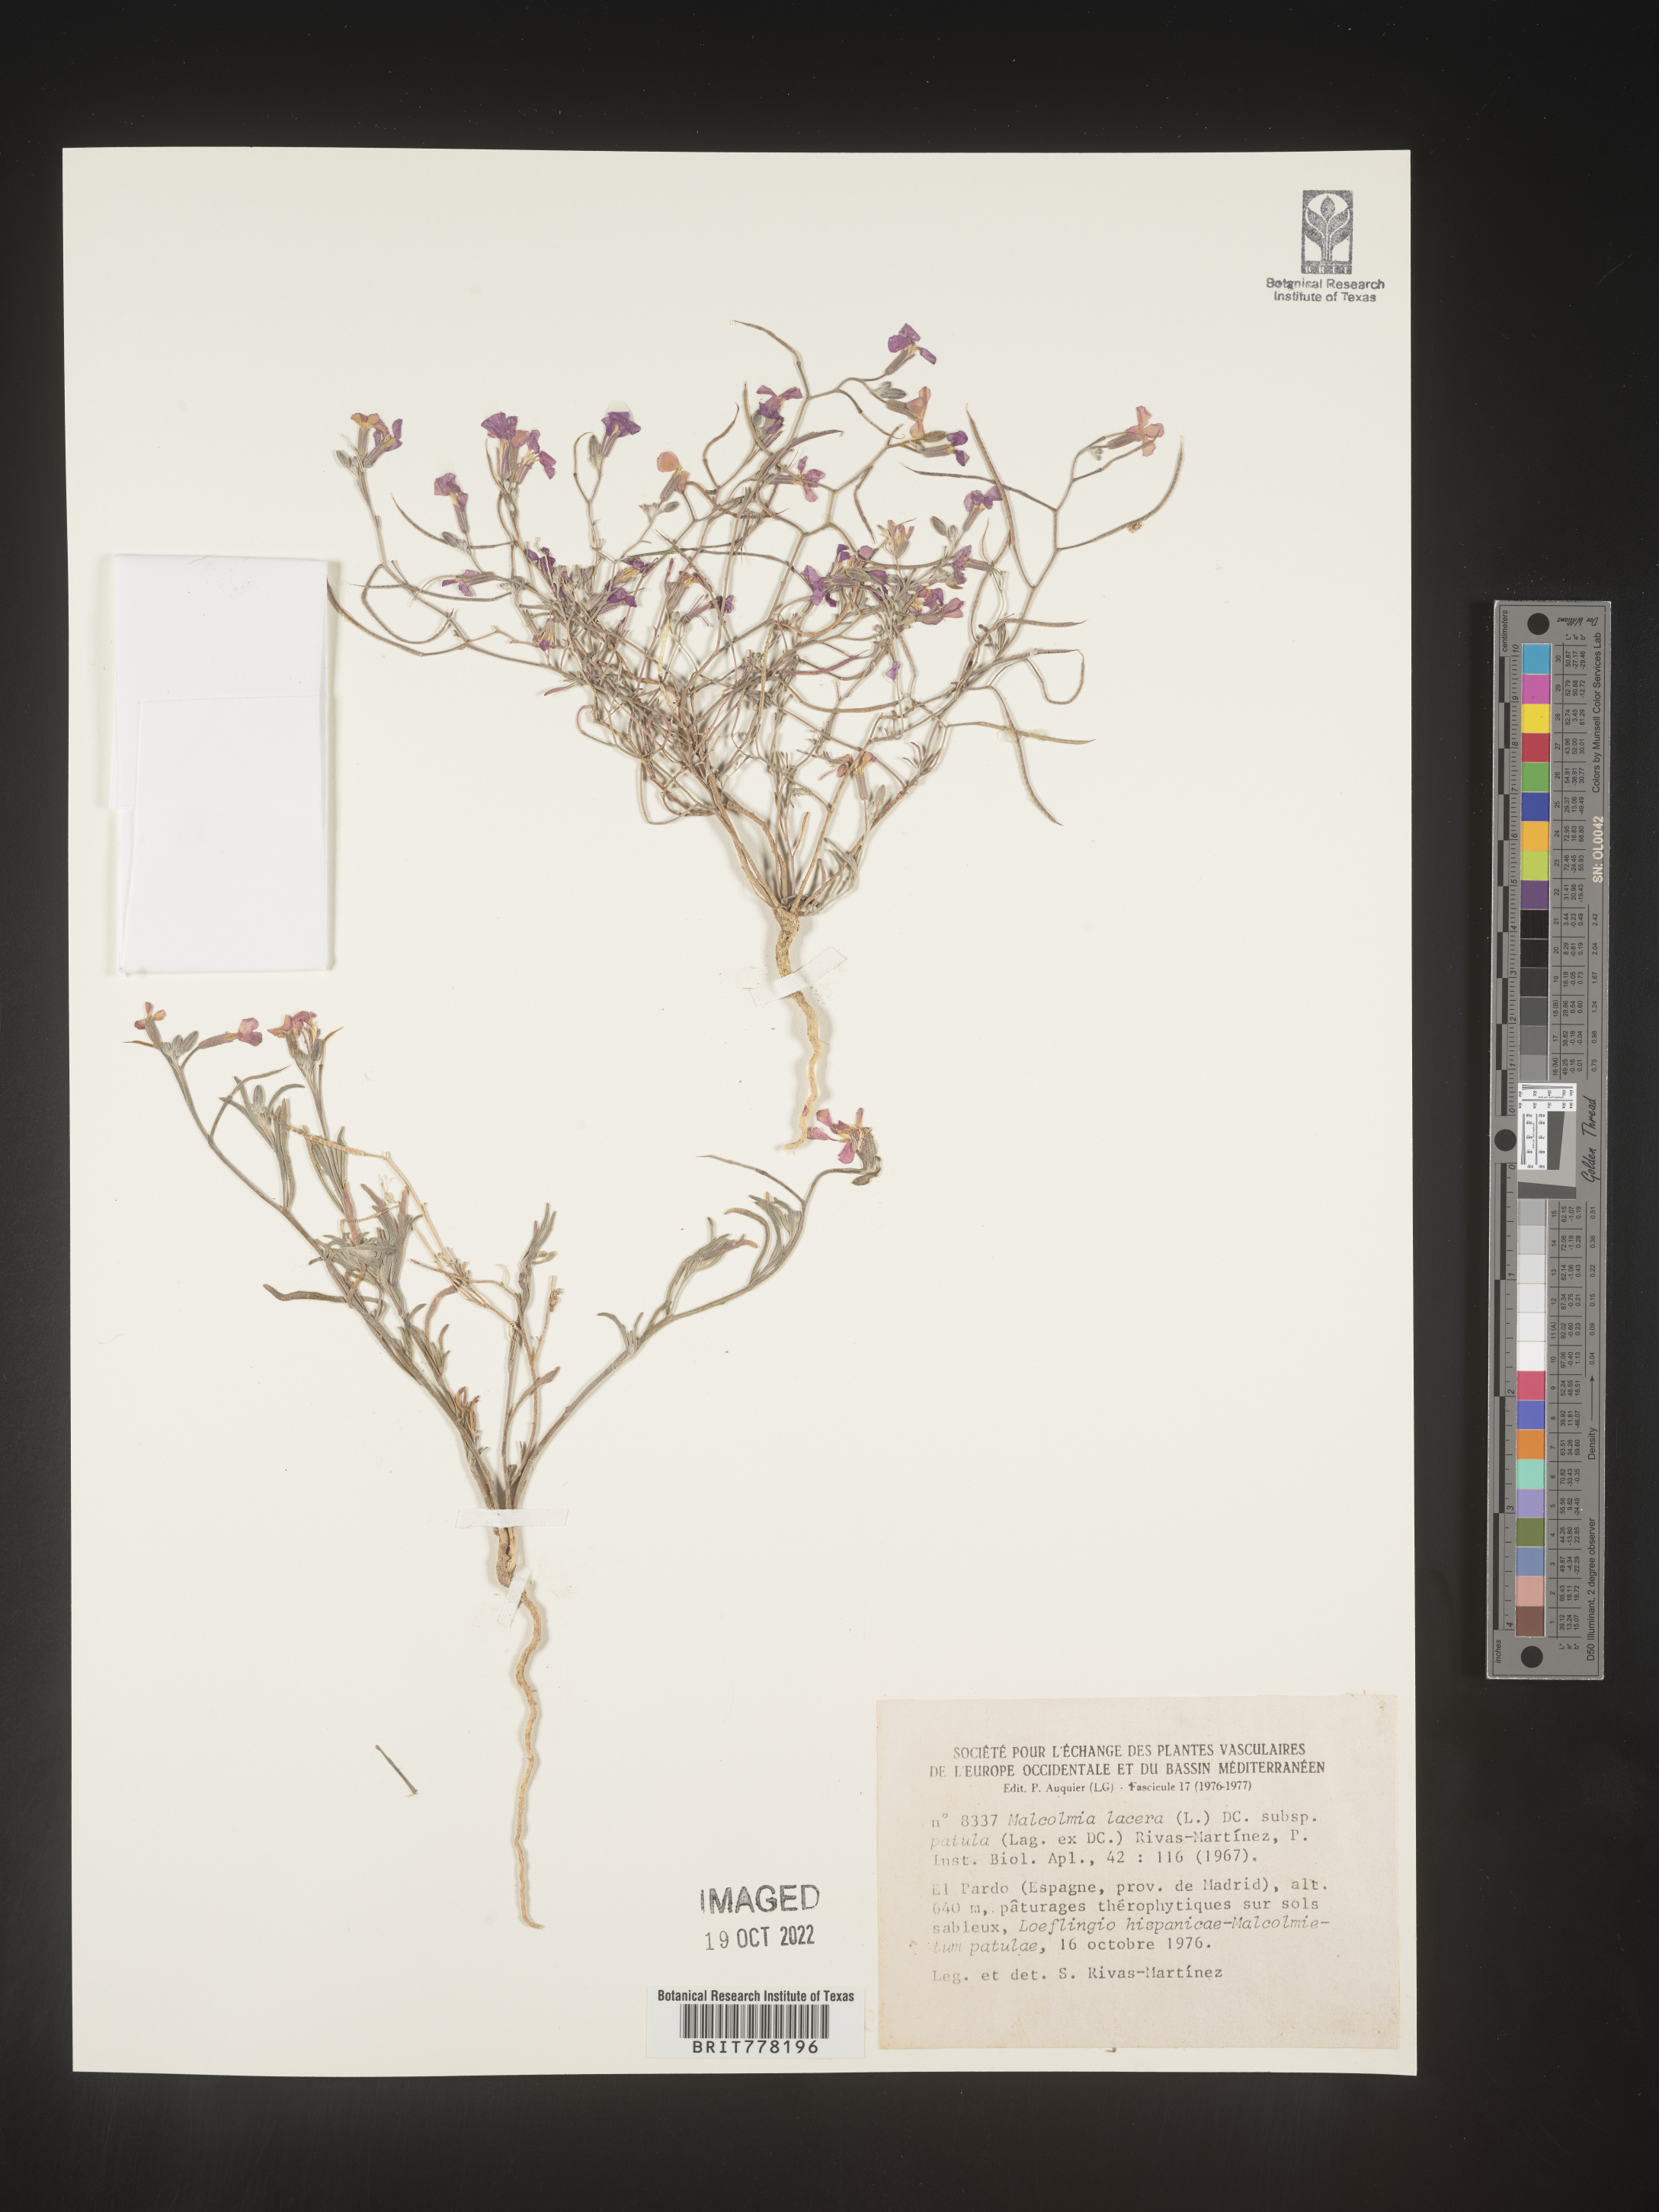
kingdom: Plantae
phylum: Tracheophyta
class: Magnoliopsida
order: Brassicales
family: Brassicaceae
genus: Malcolmia
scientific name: Malcolmia
